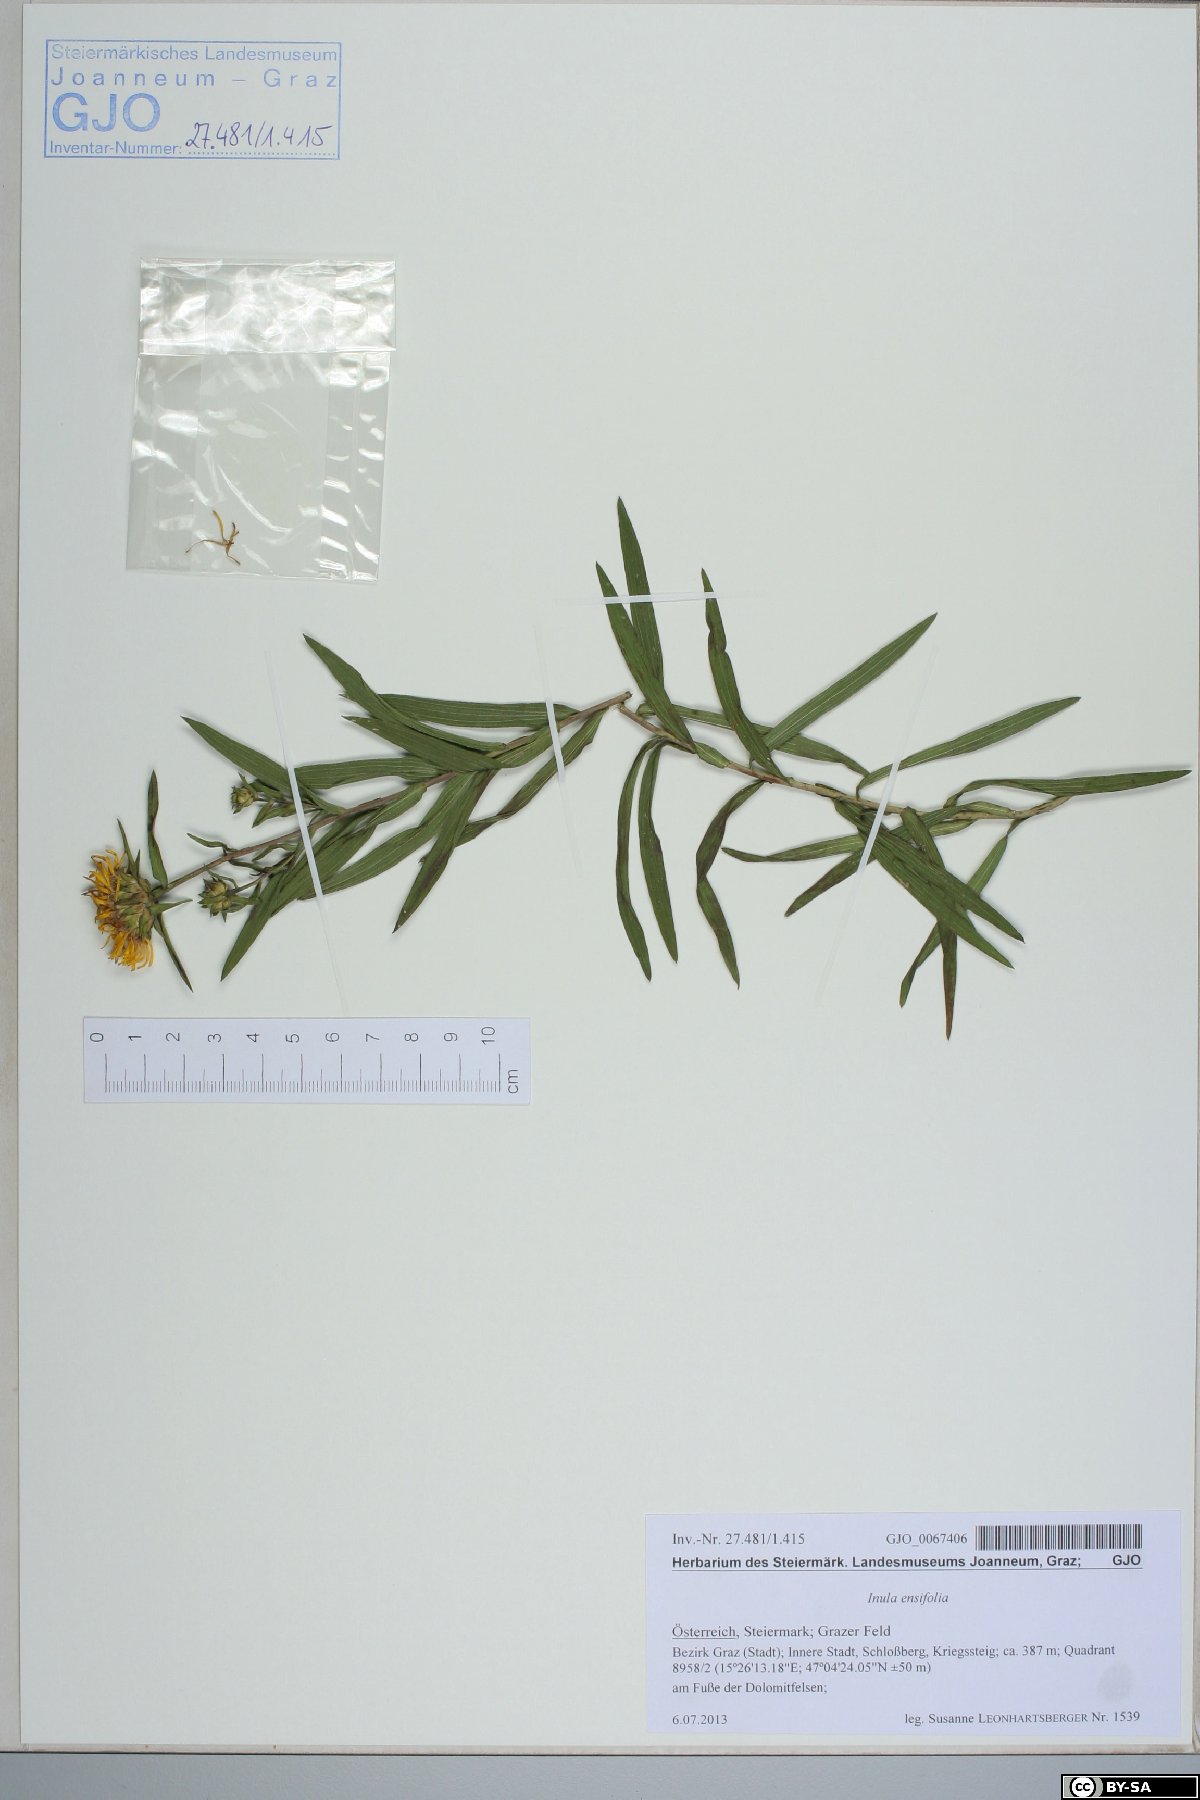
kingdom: Plantae
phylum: Tracheophyta
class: Magnoliopsida
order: Asterales
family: Asteraceae
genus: Pentanema
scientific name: Pentanema ensifolium
